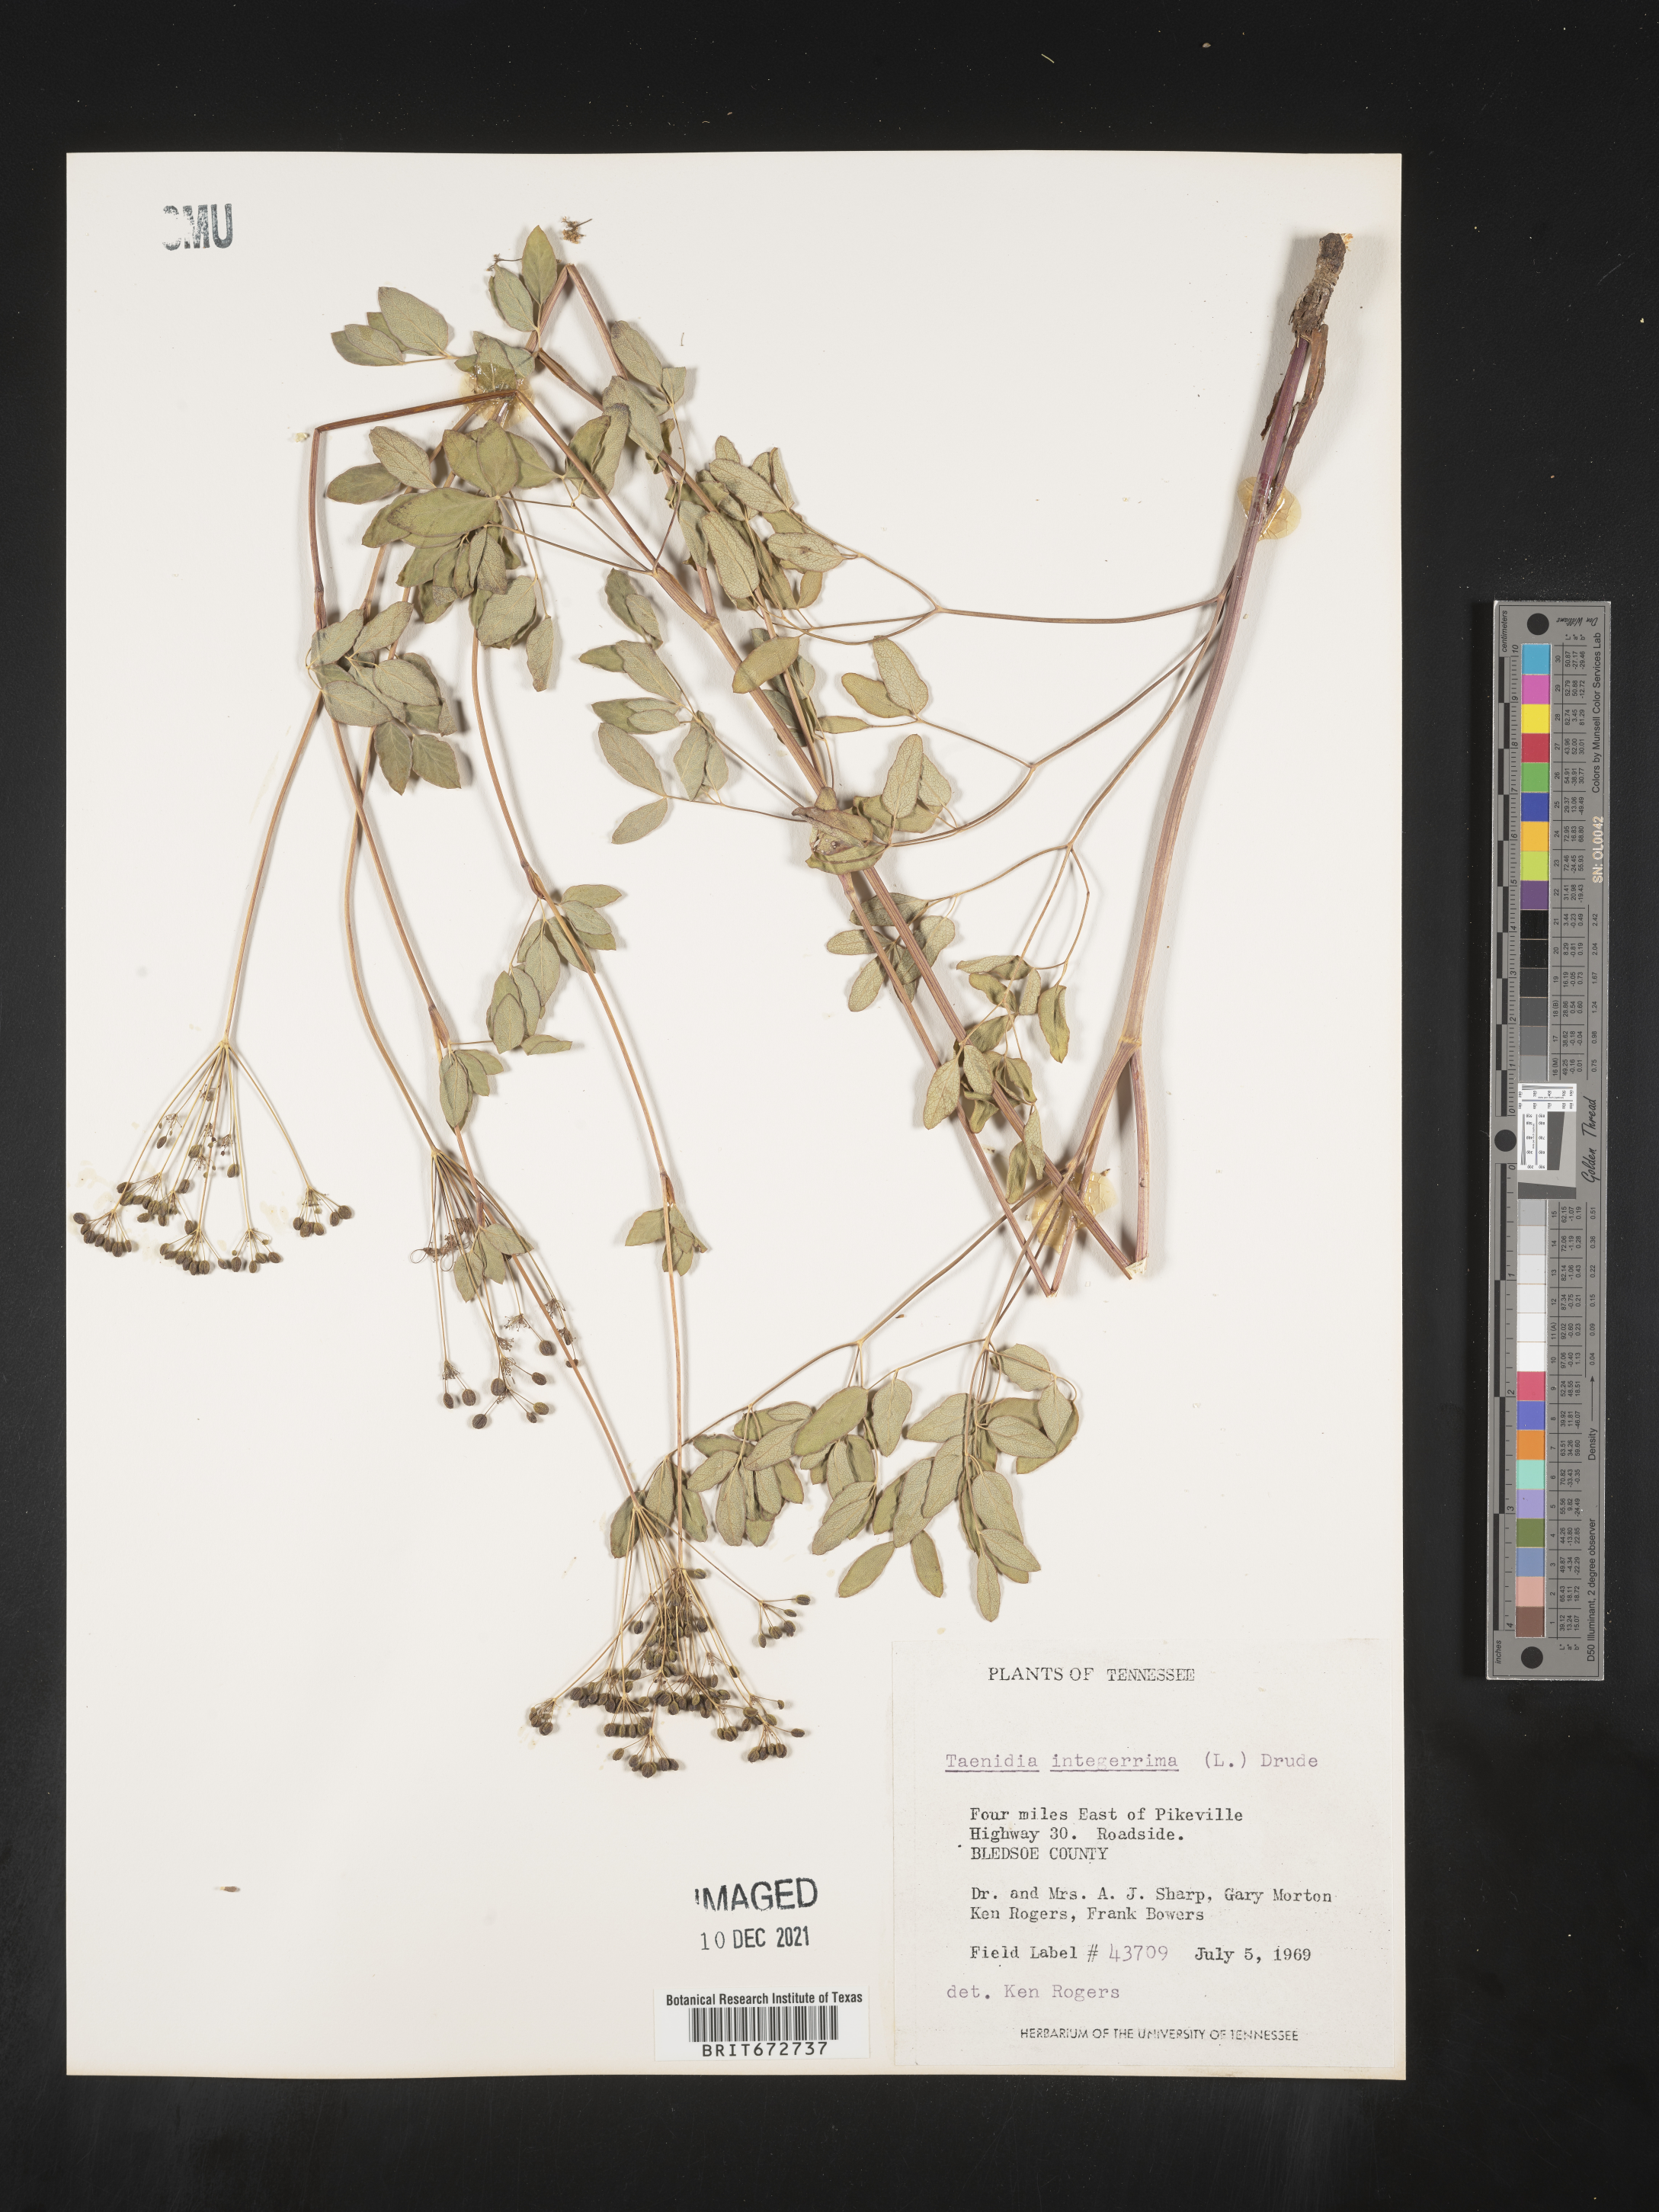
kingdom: Plantae
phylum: Tracheophyta
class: Magnoliopsida
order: Apiales
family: Apiaceae
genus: Taenidia
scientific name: Taenidia
